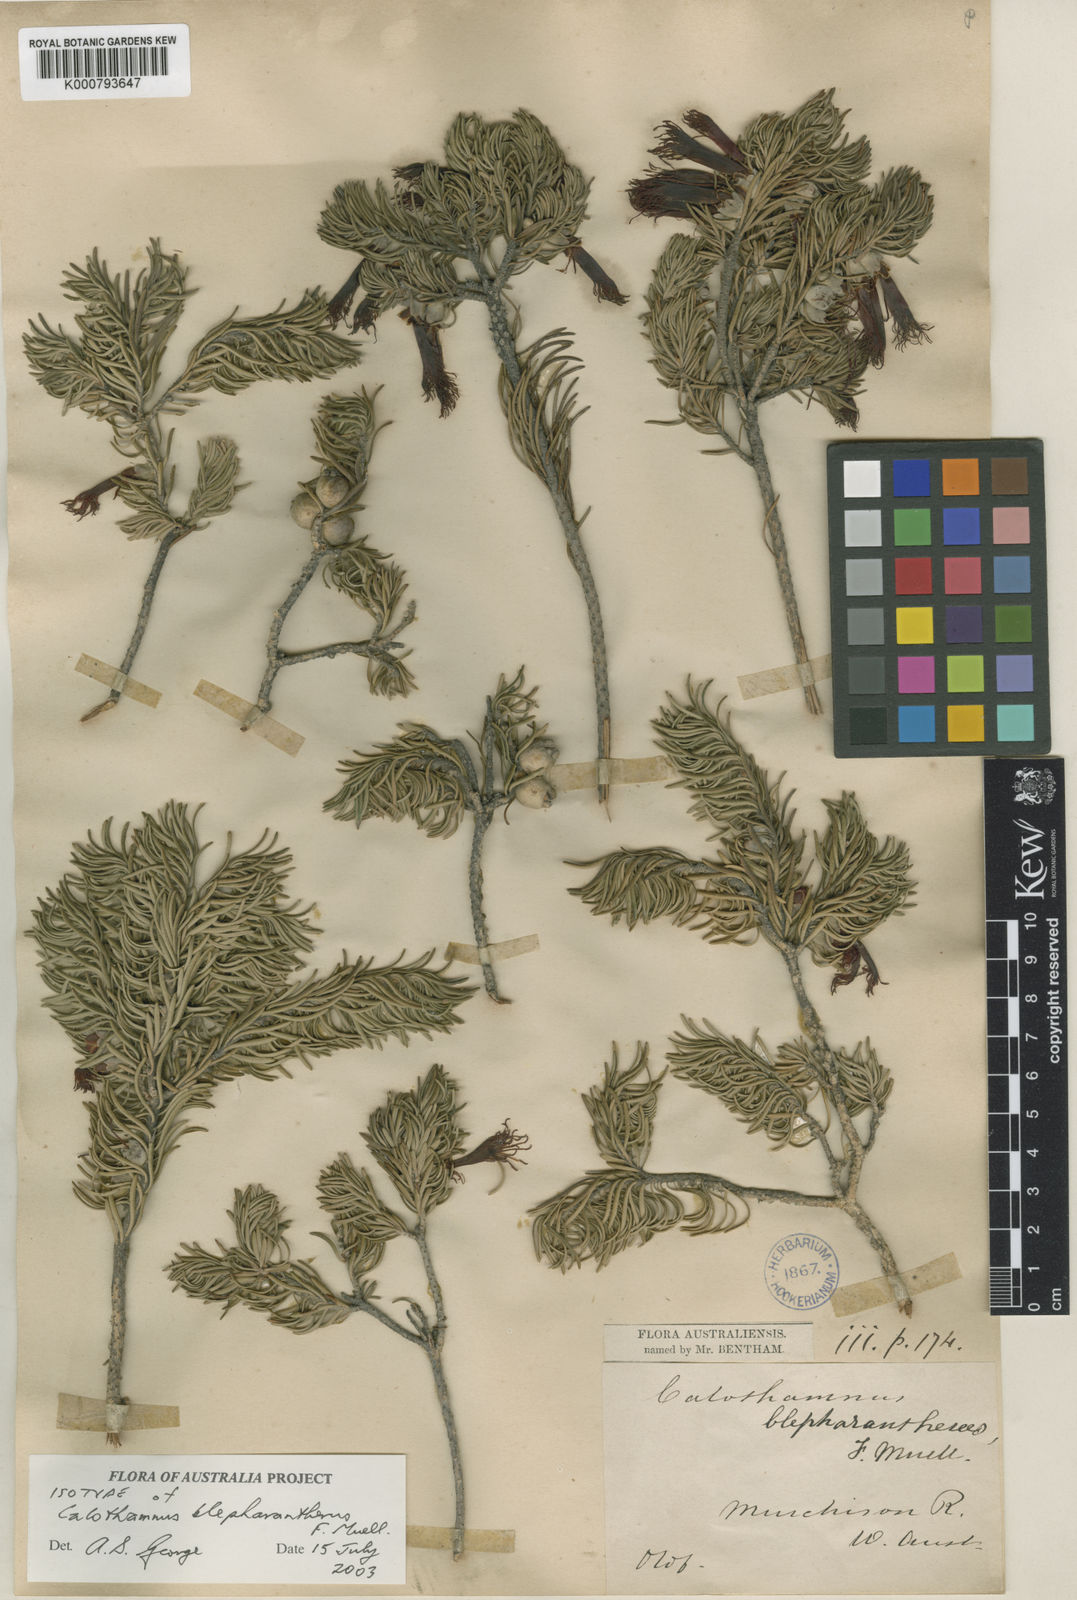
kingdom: Plantae
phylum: Tracheophyta
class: Magnoliopsida
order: Myrtales
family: Myrtaceae
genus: Melaleuca
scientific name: Melaleuca cruenta
